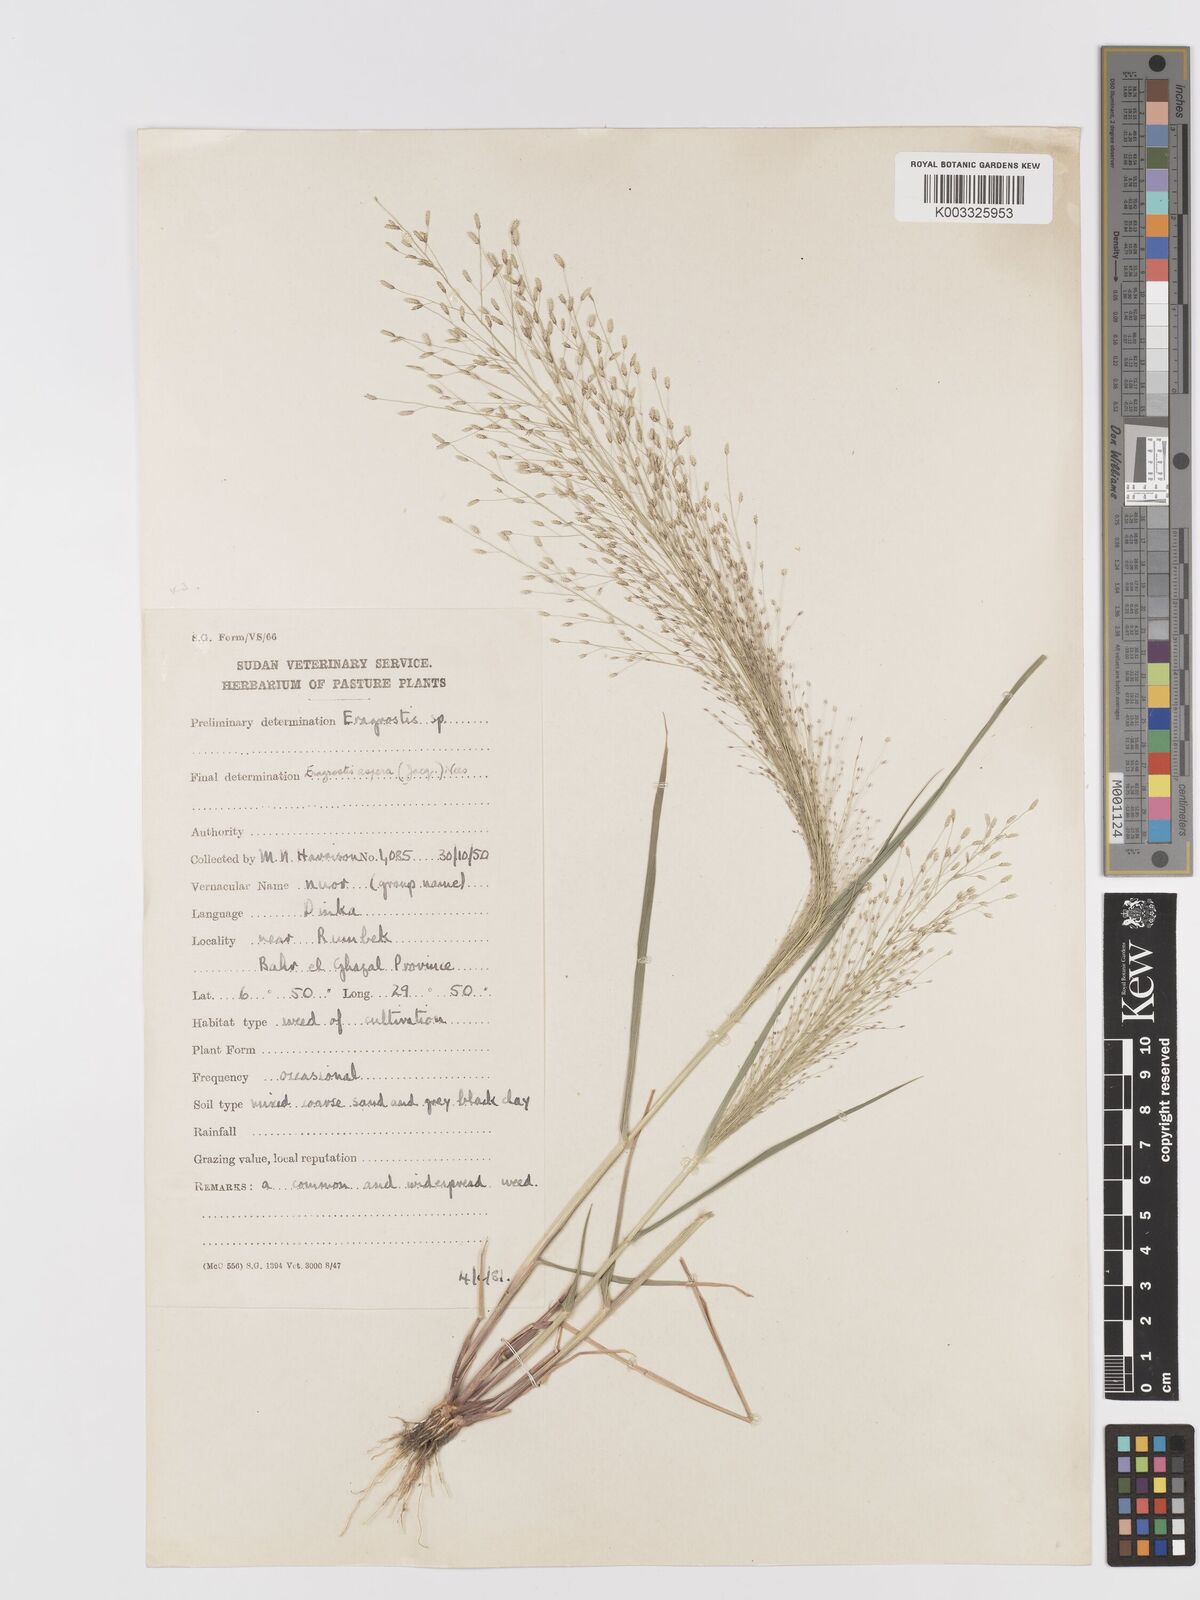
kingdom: Plantae
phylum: Tracheophyta
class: Liliopsida
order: Poales
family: Poaceae
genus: Eragrostis
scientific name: Eragrostis aspera
